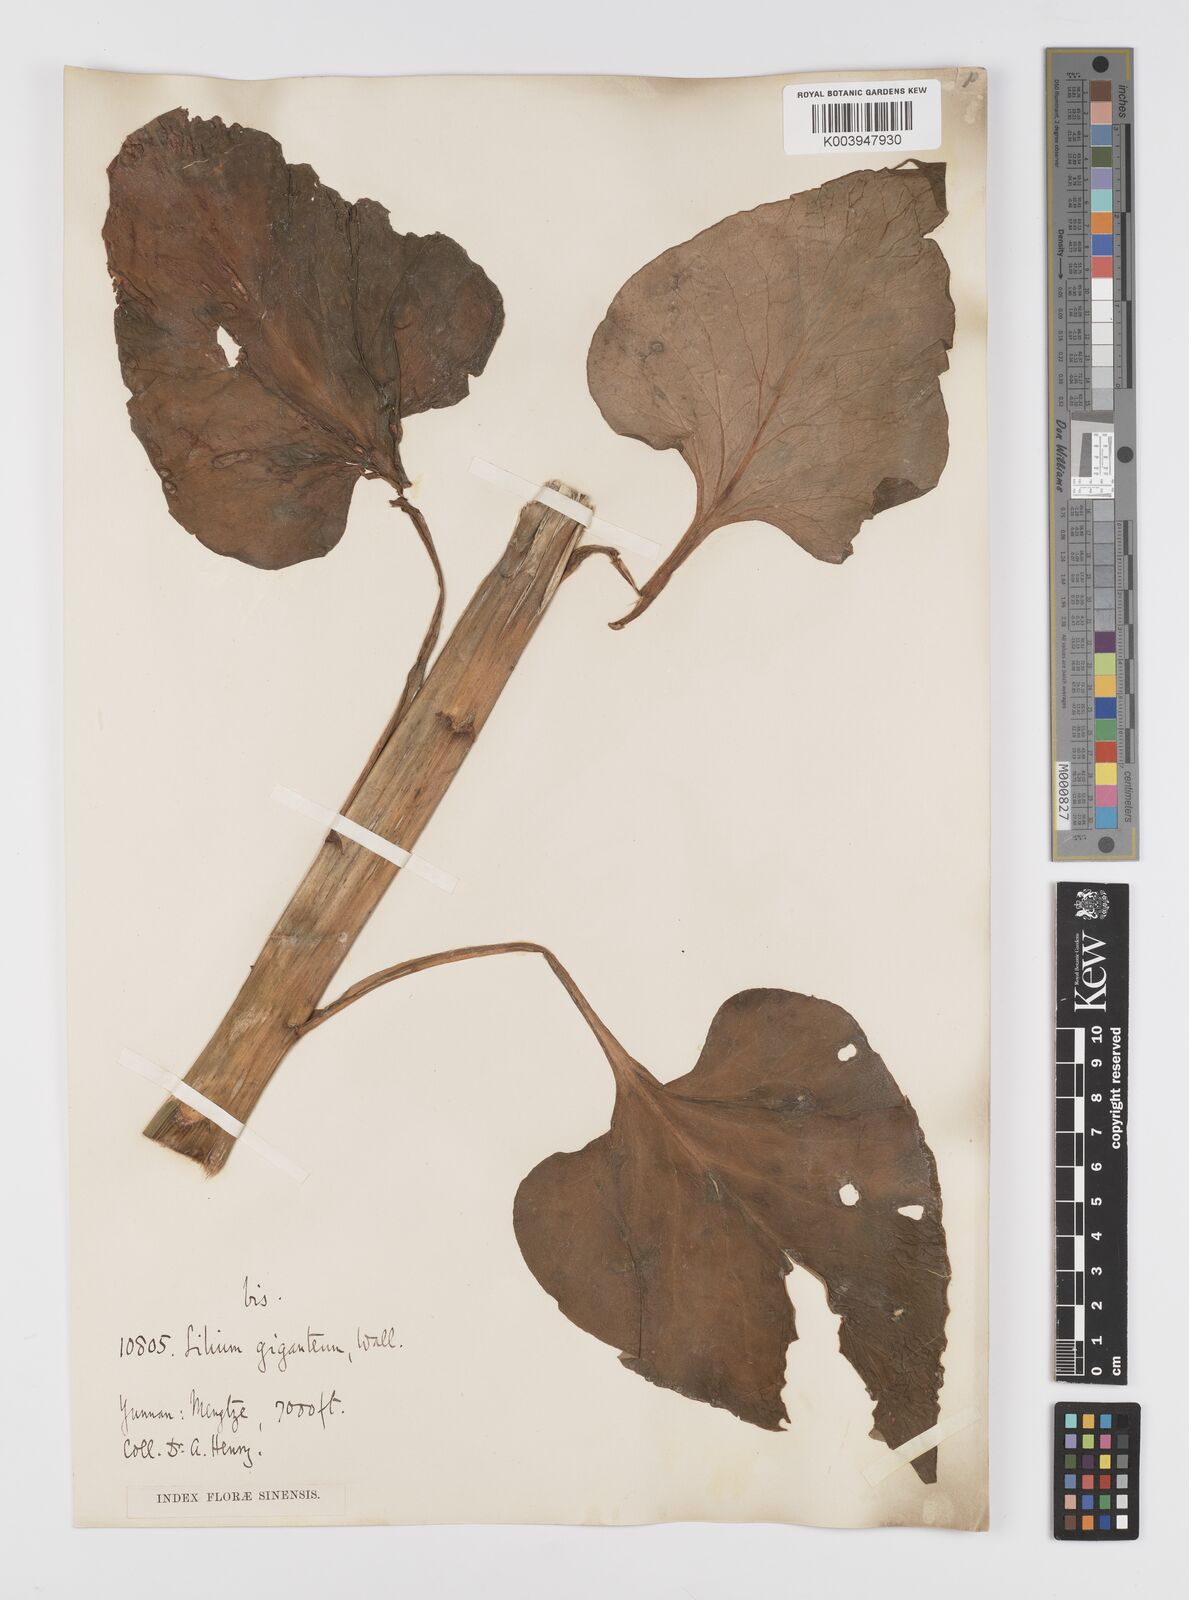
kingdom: Plantae
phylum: Tracheophyta
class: Liliopsida
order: Liliales
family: Liliaceae
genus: Cardiocrinum
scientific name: Cardiocrinum giganteum
